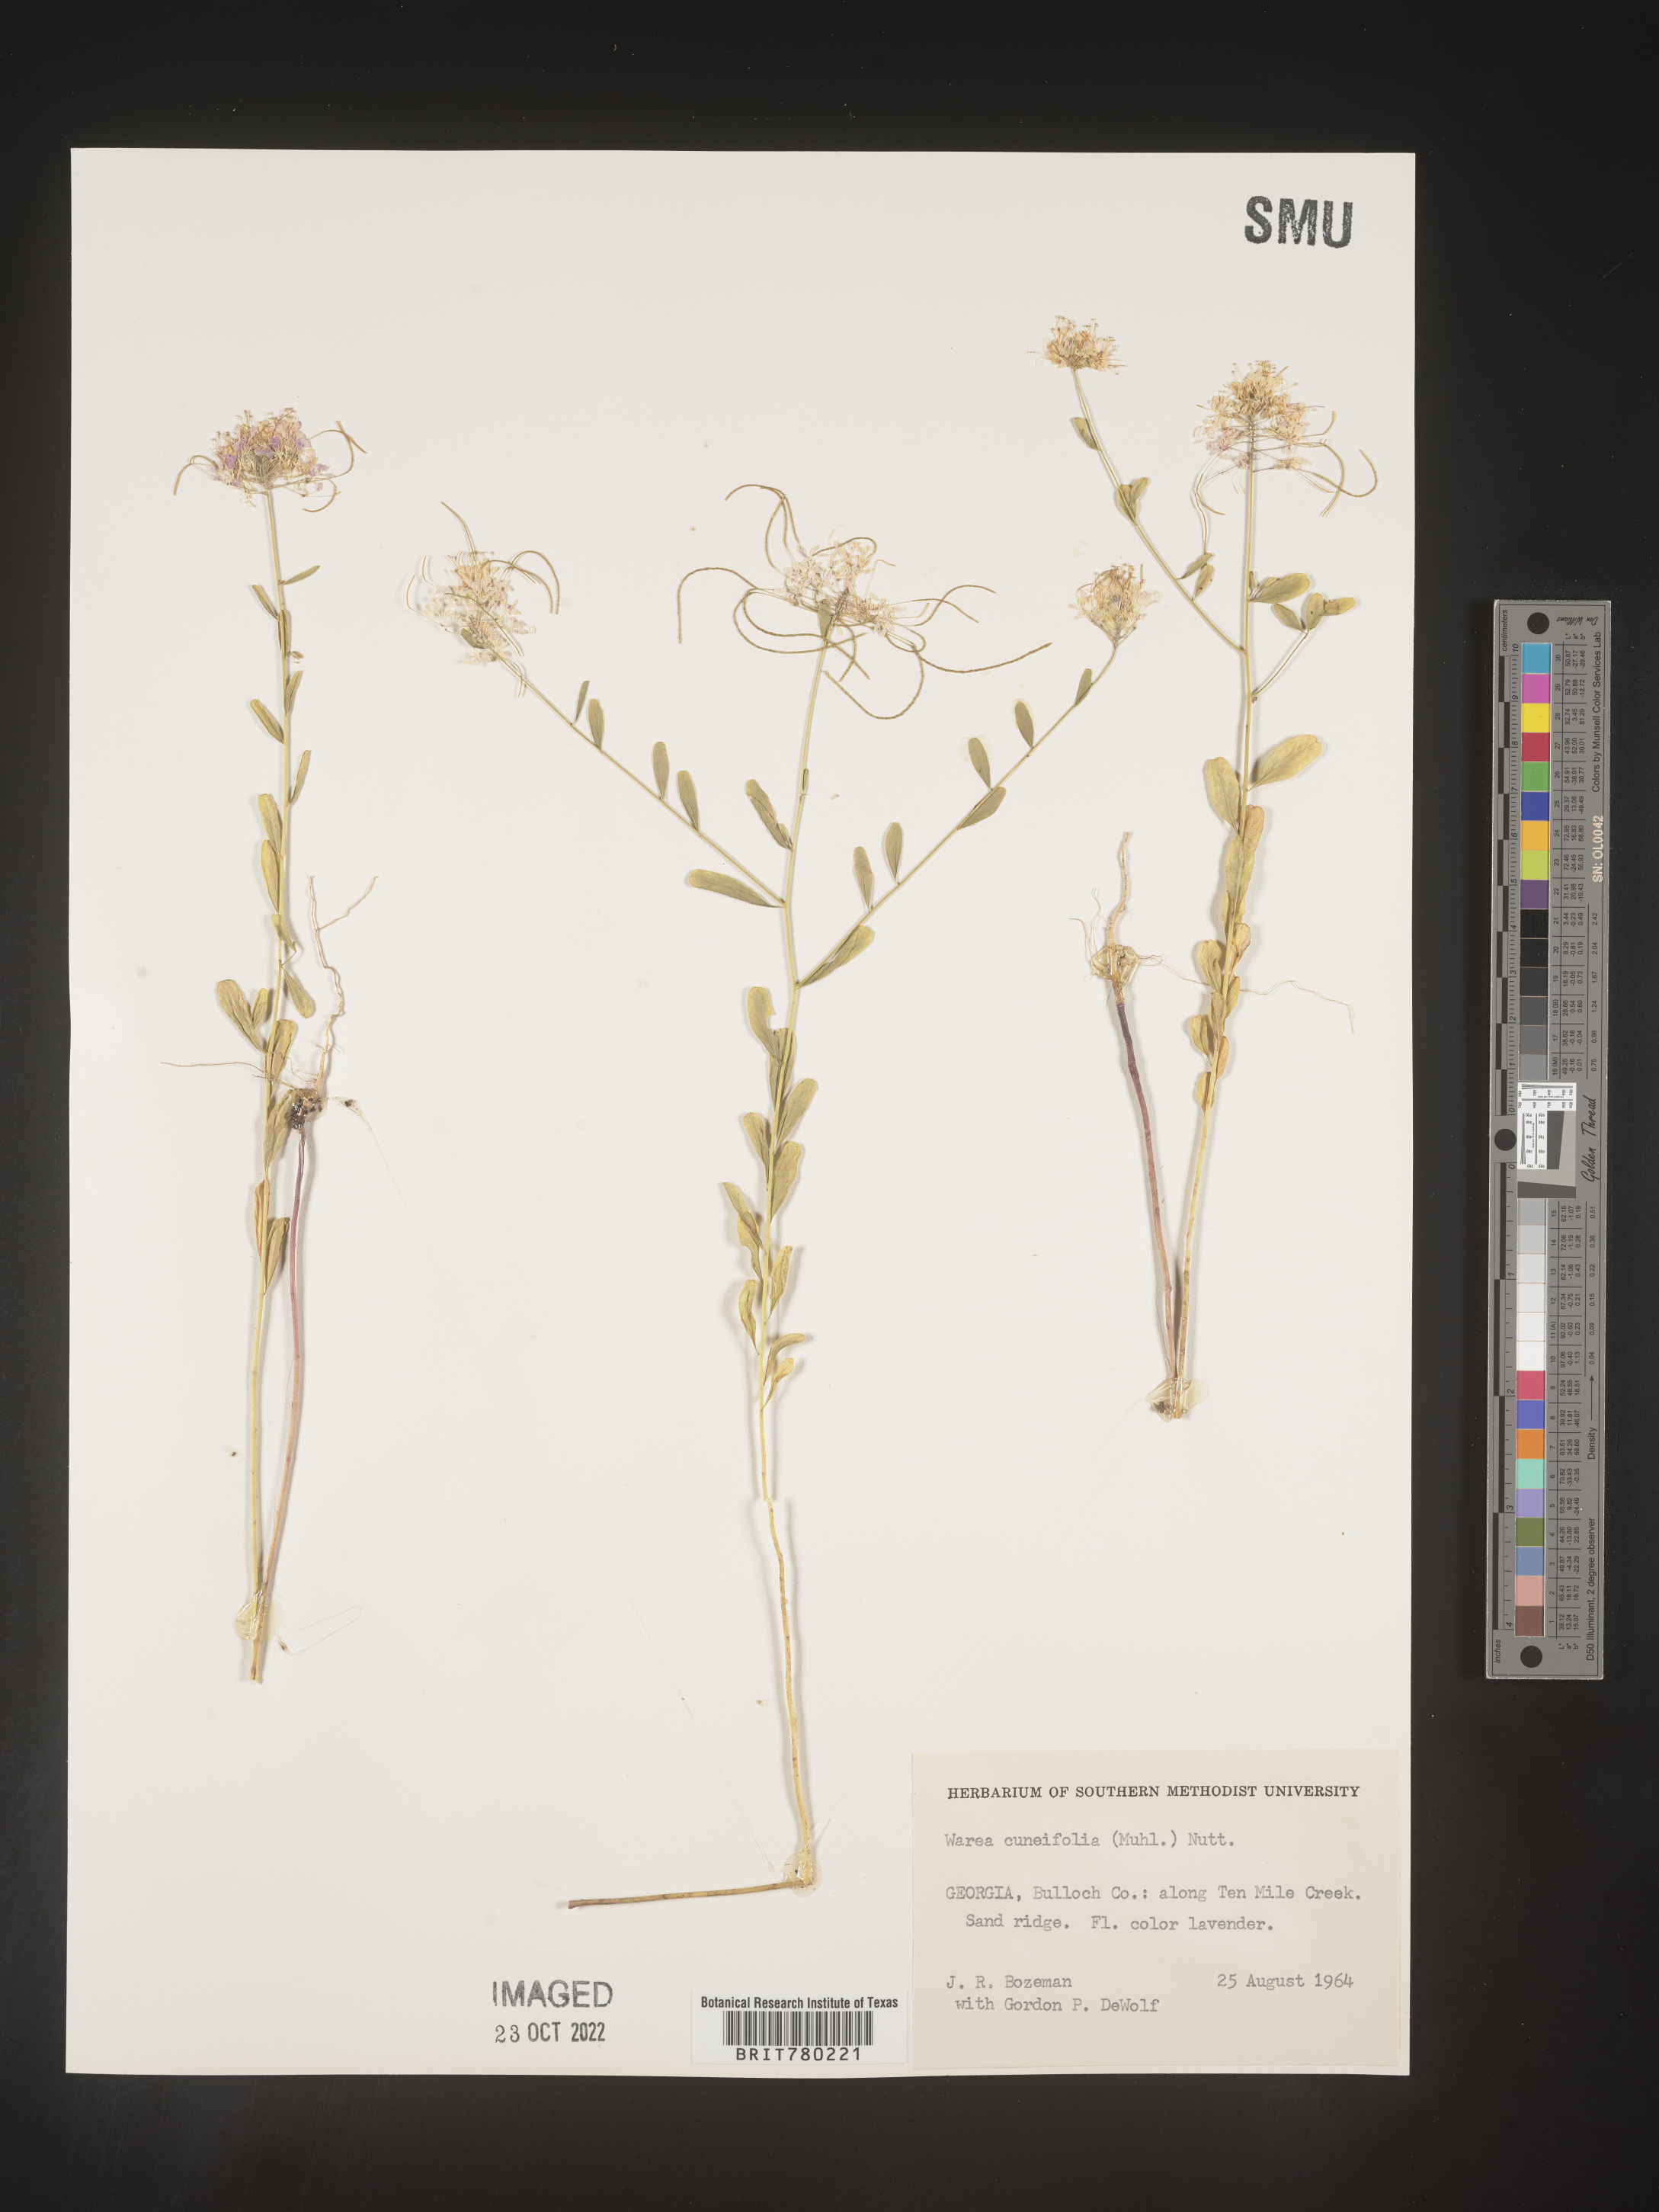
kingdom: Plantae
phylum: Tracheophyta
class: Magnoliopsida
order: Brassicales
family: Brassicaceae
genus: Warea
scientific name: Warea
